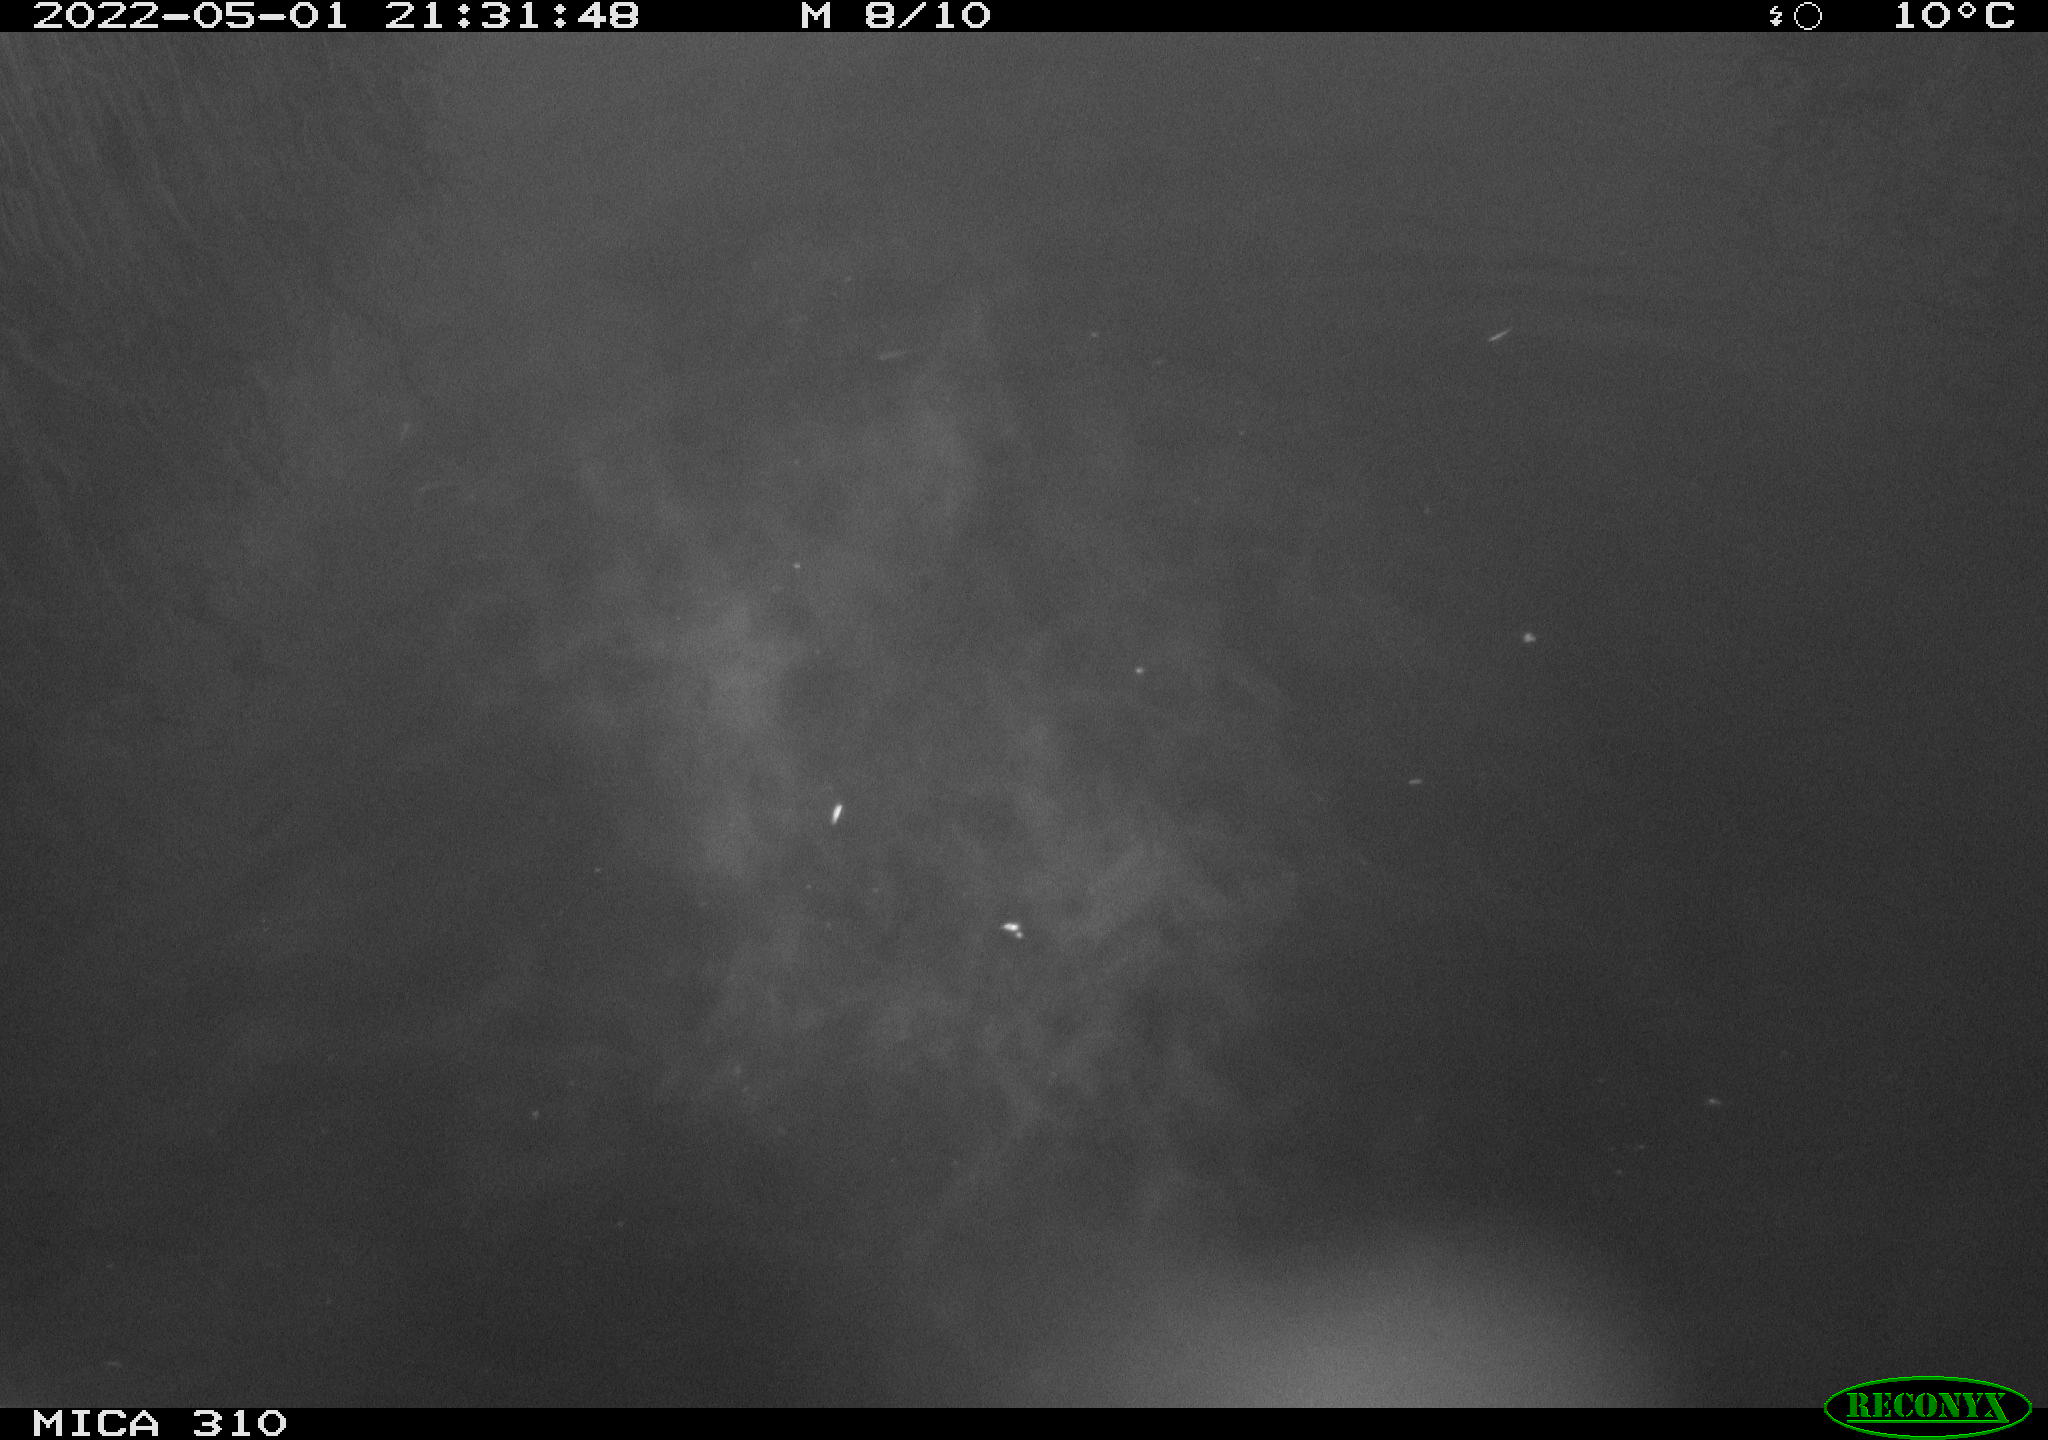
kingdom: Animalia
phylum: Chordata
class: Aves
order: Anseriformes
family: Anatidae
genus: Anas
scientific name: Anas platyrhynchos
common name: Mallard
